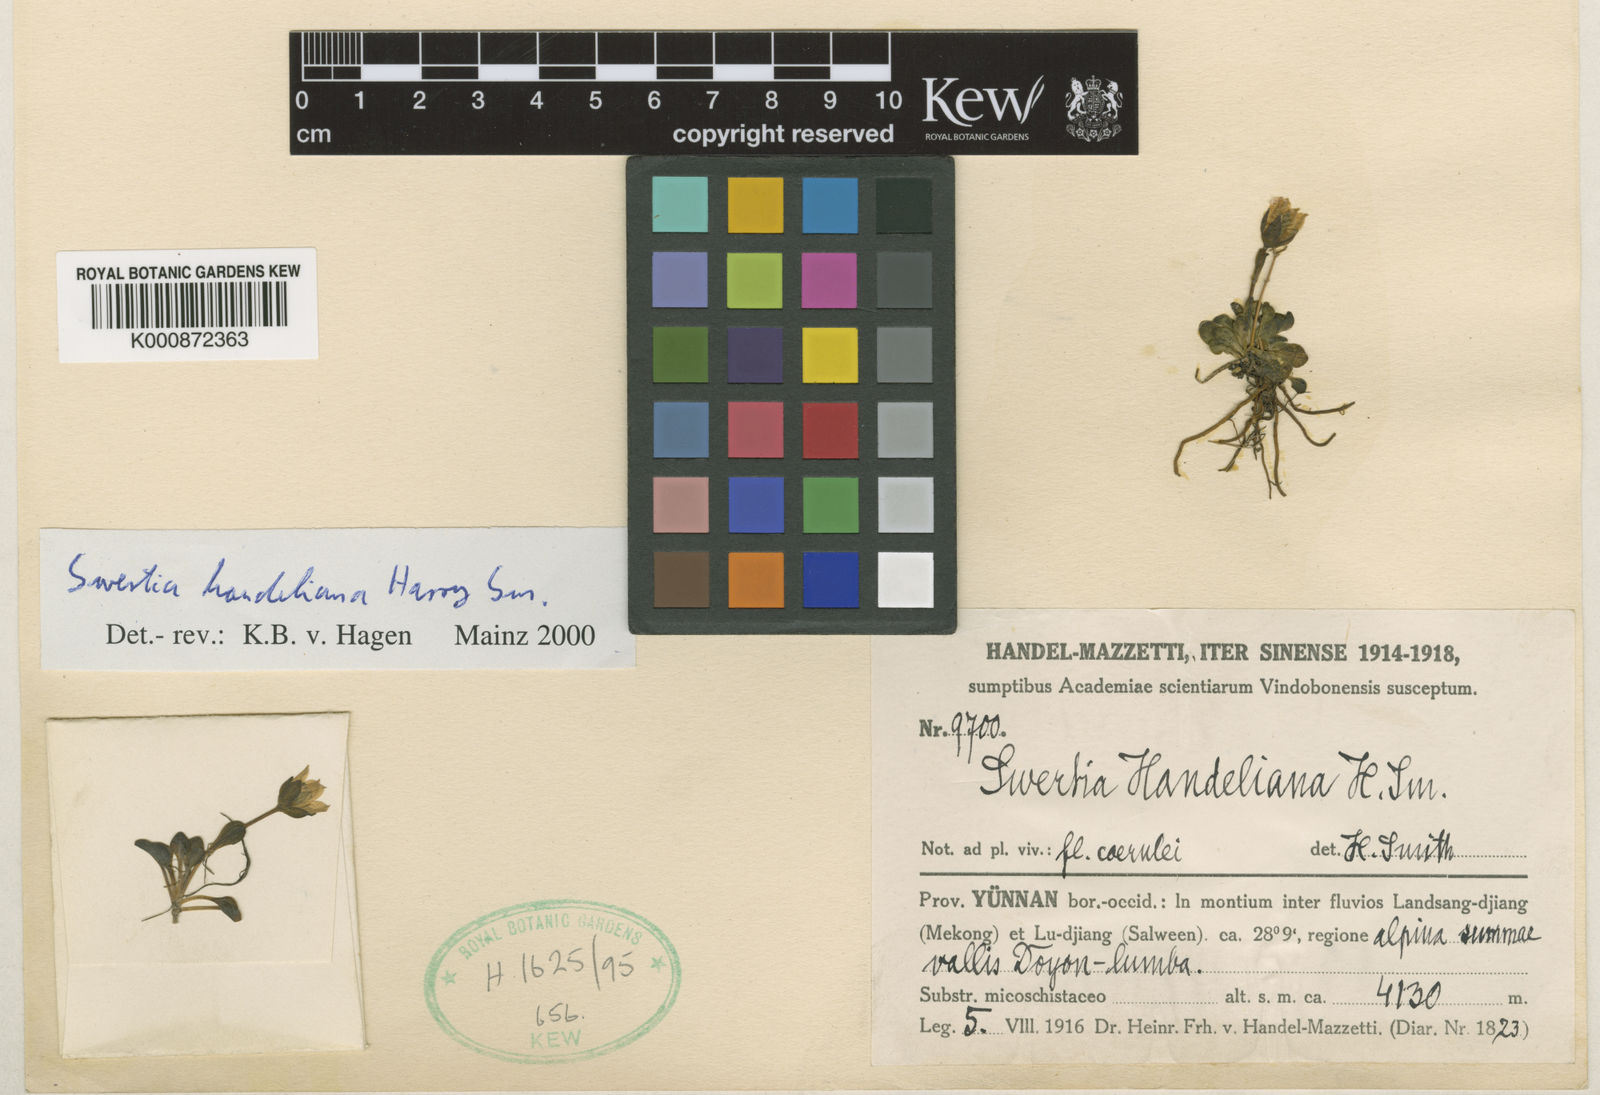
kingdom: Plantae
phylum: Tracheophyta
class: Magnoliopsida
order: Gentianales
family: Gentianaceae
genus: Swertia
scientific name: Swertia handeliana
